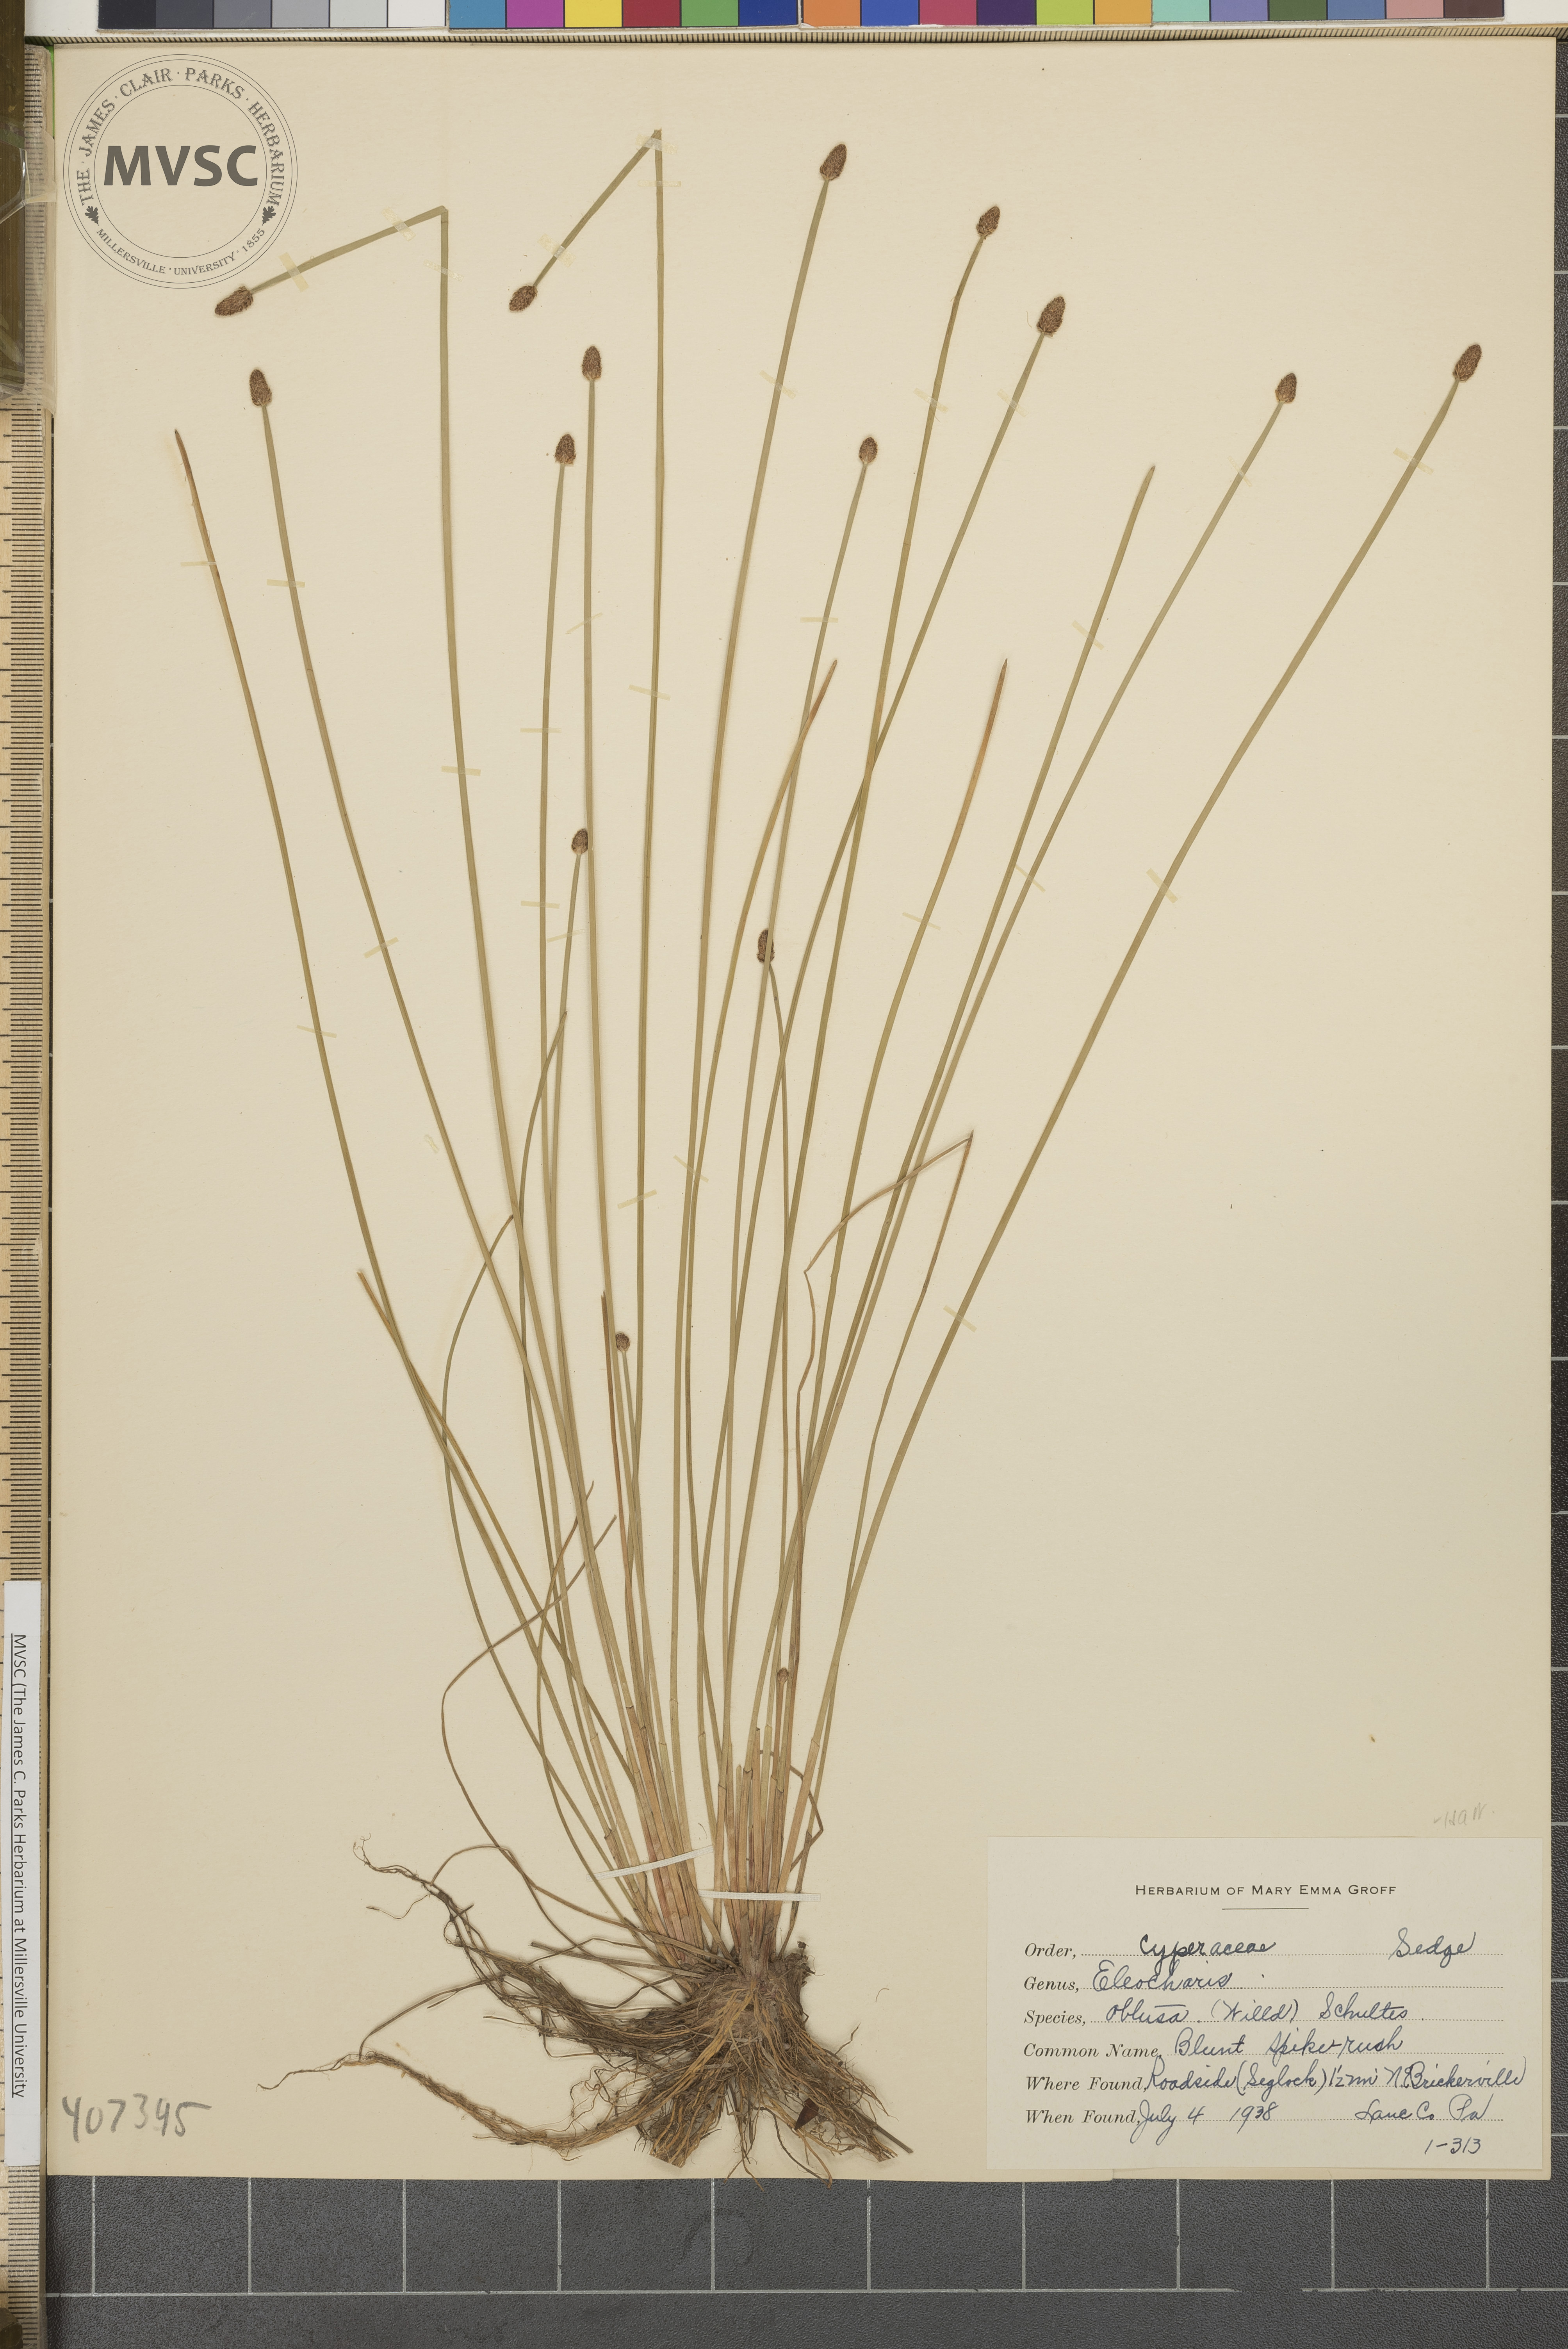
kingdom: Plantae
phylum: Tracheophyta
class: Liliopsida
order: Poales
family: Cyperaceae
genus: Eleocharis
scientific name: Eleocharis obtusa
